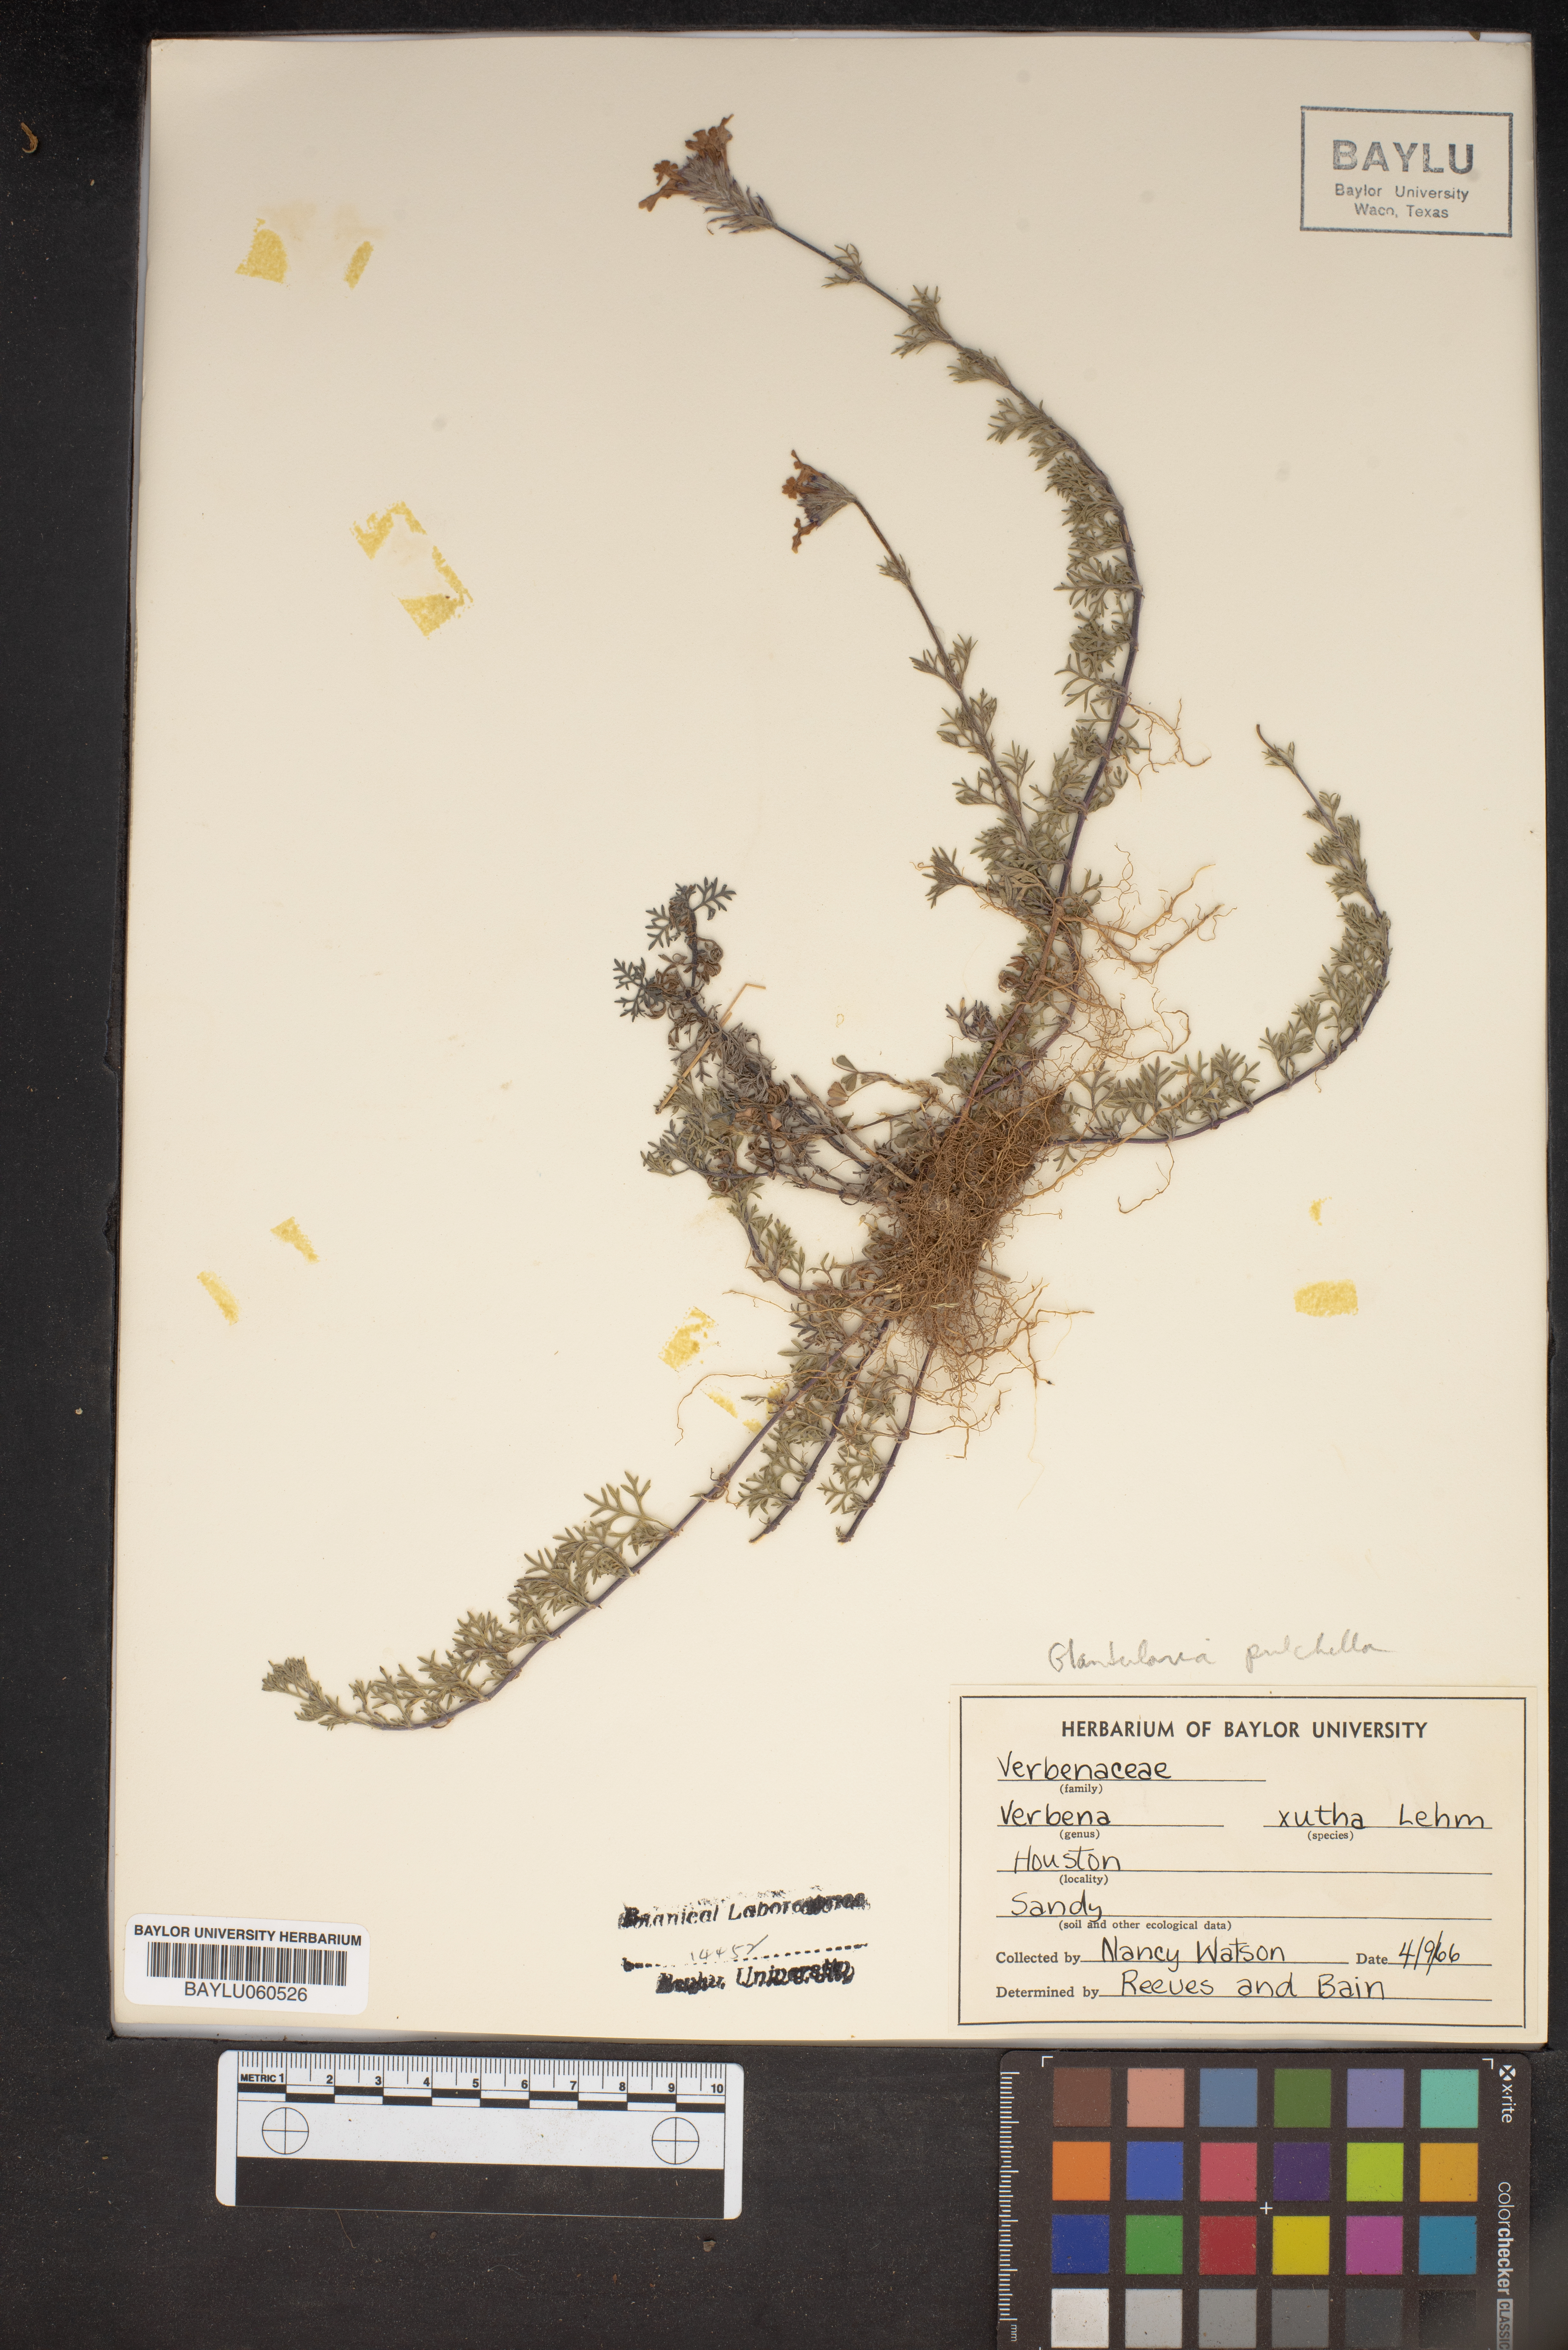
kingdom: Plantae
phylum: Tracheophyta
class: Magnoliopsida
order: Lamiales
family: Verbenaceae
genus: Verbena
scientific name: Verbena xutha
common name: Gulf vervain
